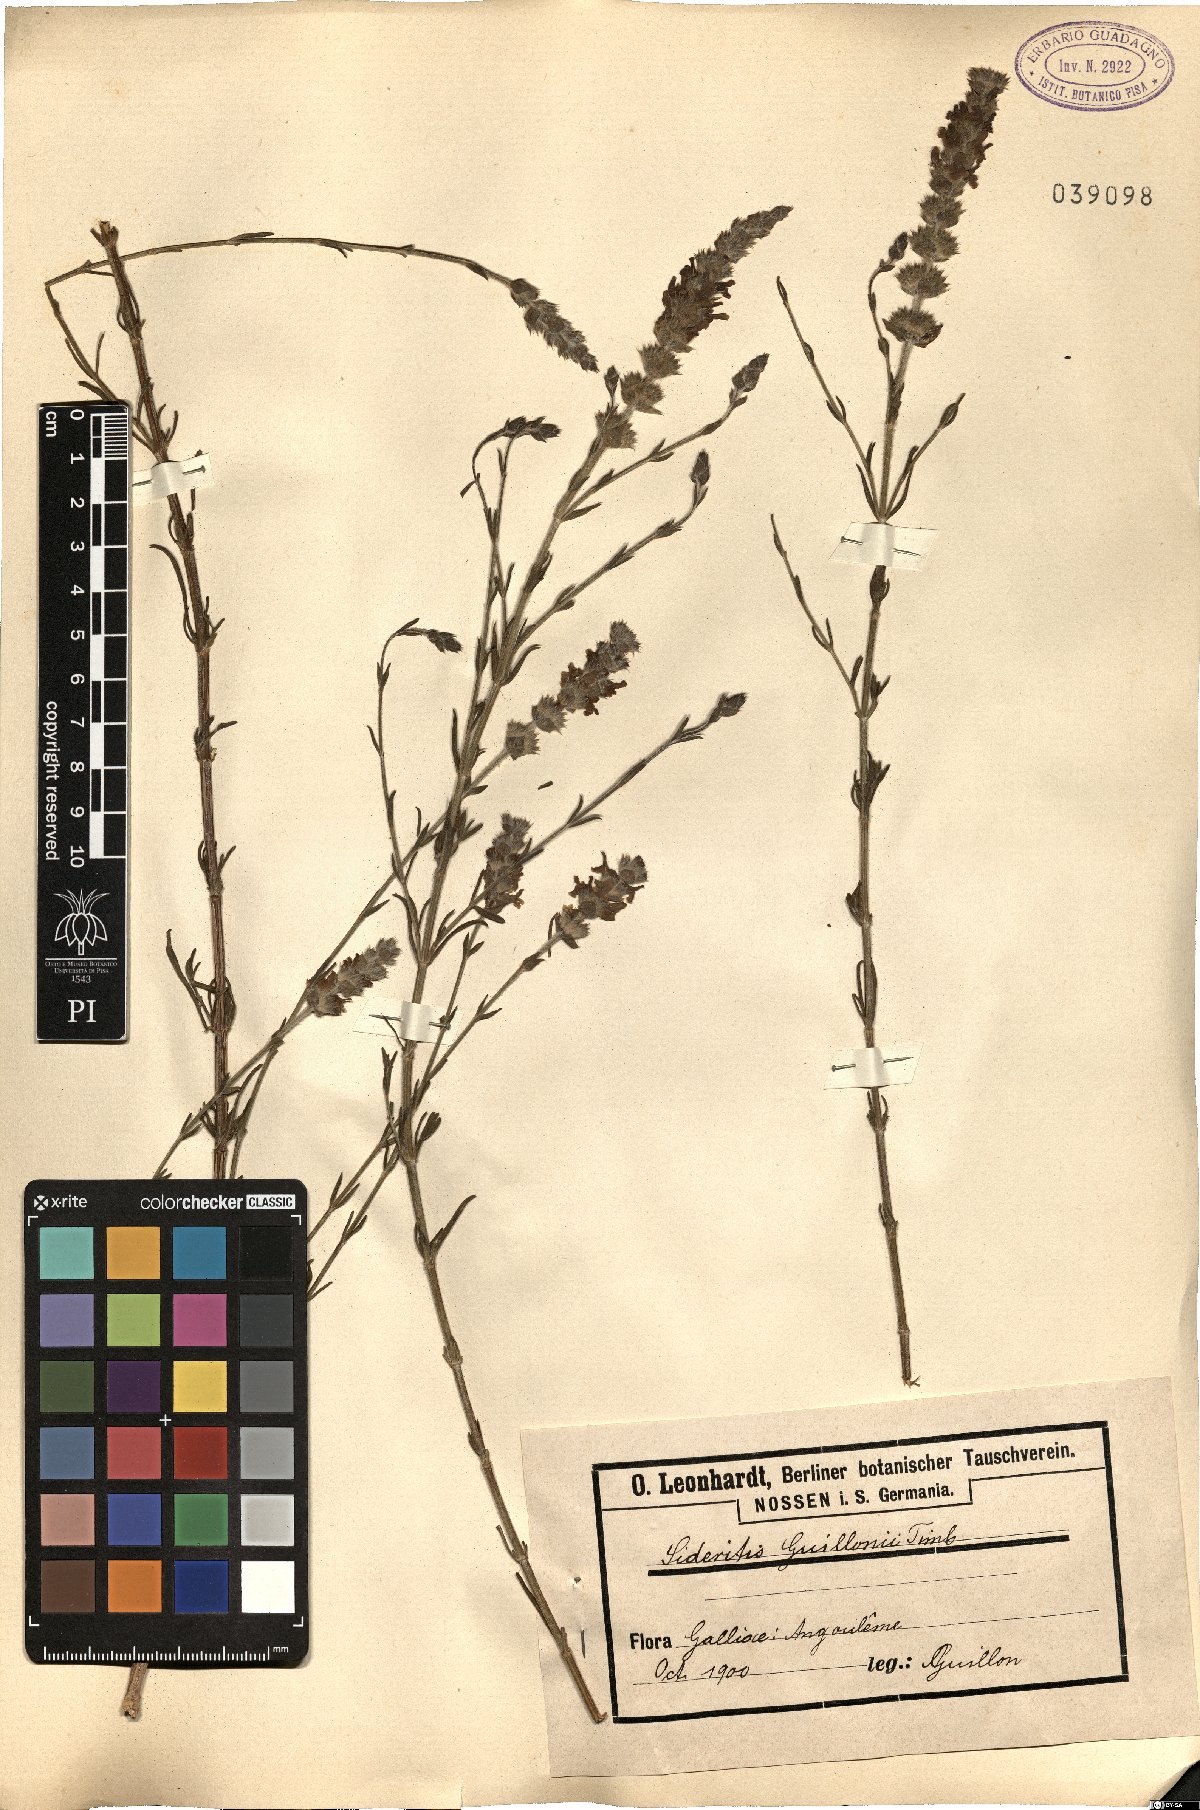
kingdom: Plantae
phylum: Tracheophyta
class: Magnoliopsida
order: Lamiales
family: Lamiaceae
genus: Sideritis
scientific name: Sideritis hyssopifolia
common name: Mountain tea
